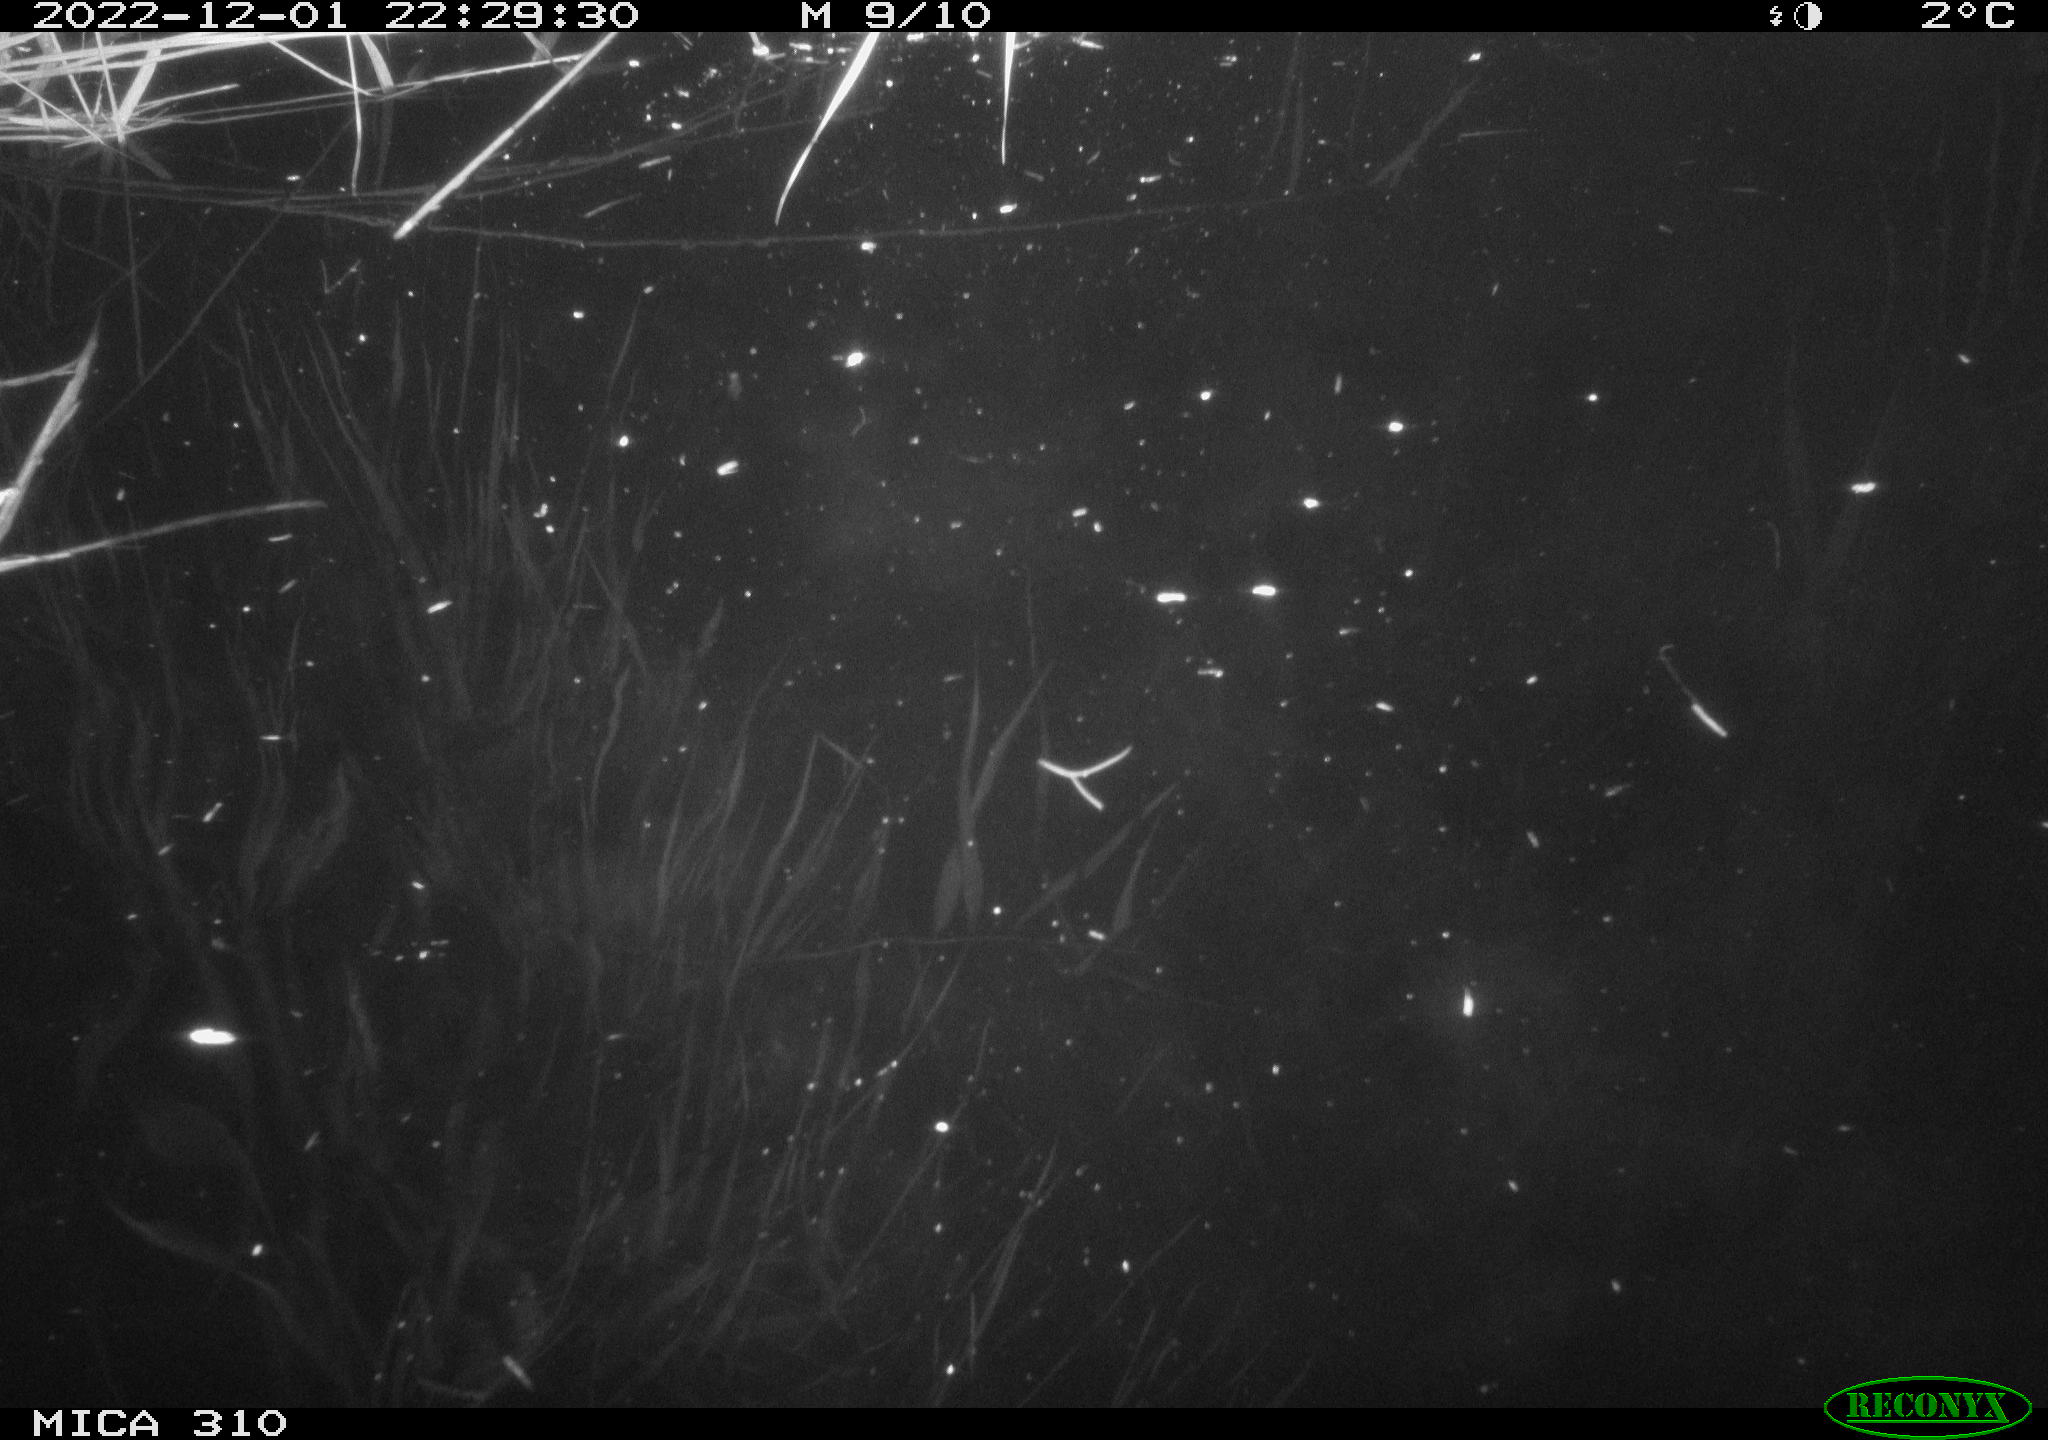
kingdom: Animalia
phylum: Chordata
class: Mammalia
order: Rodentia
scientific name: Rodentia
